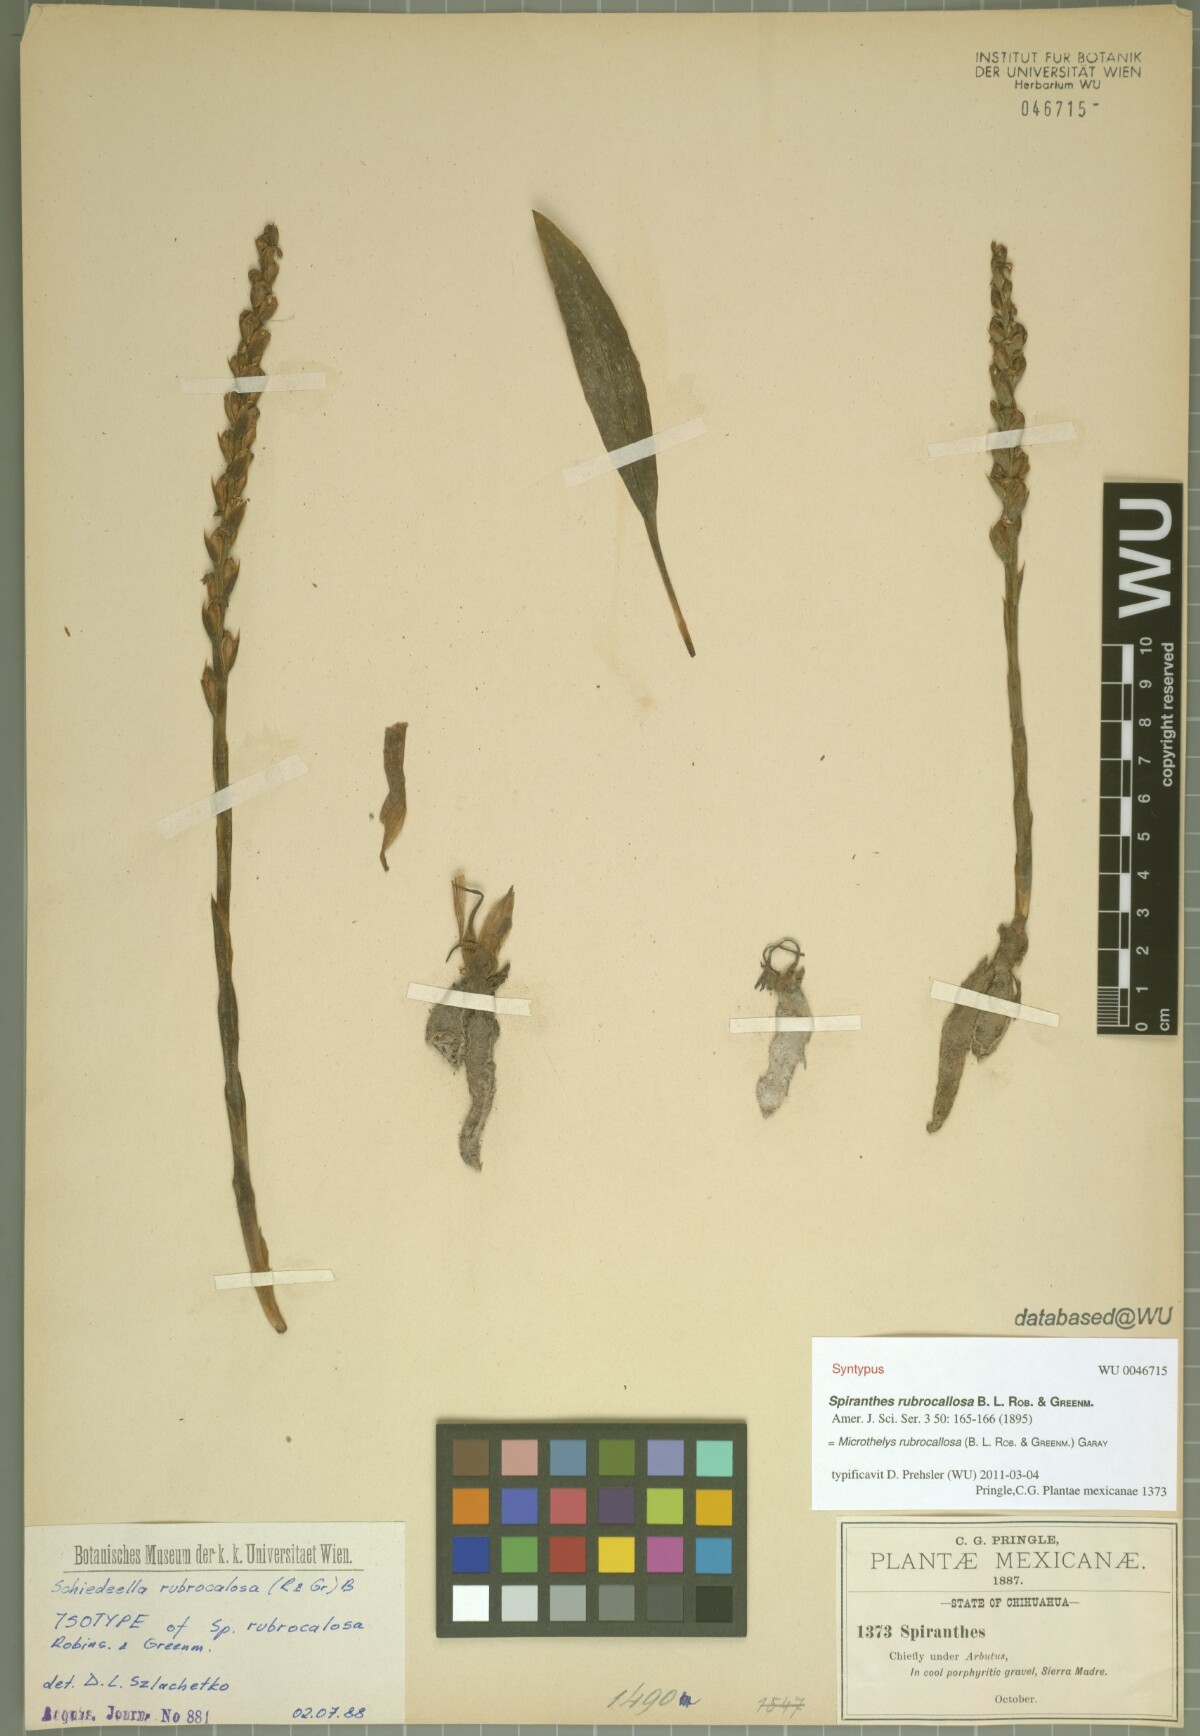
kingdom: Plantae
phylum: Tracheophyta
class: Liliopsida
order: Asparagales
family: Orchidaceae
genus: Microthelys
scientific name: Microthelys rubrocalosa
